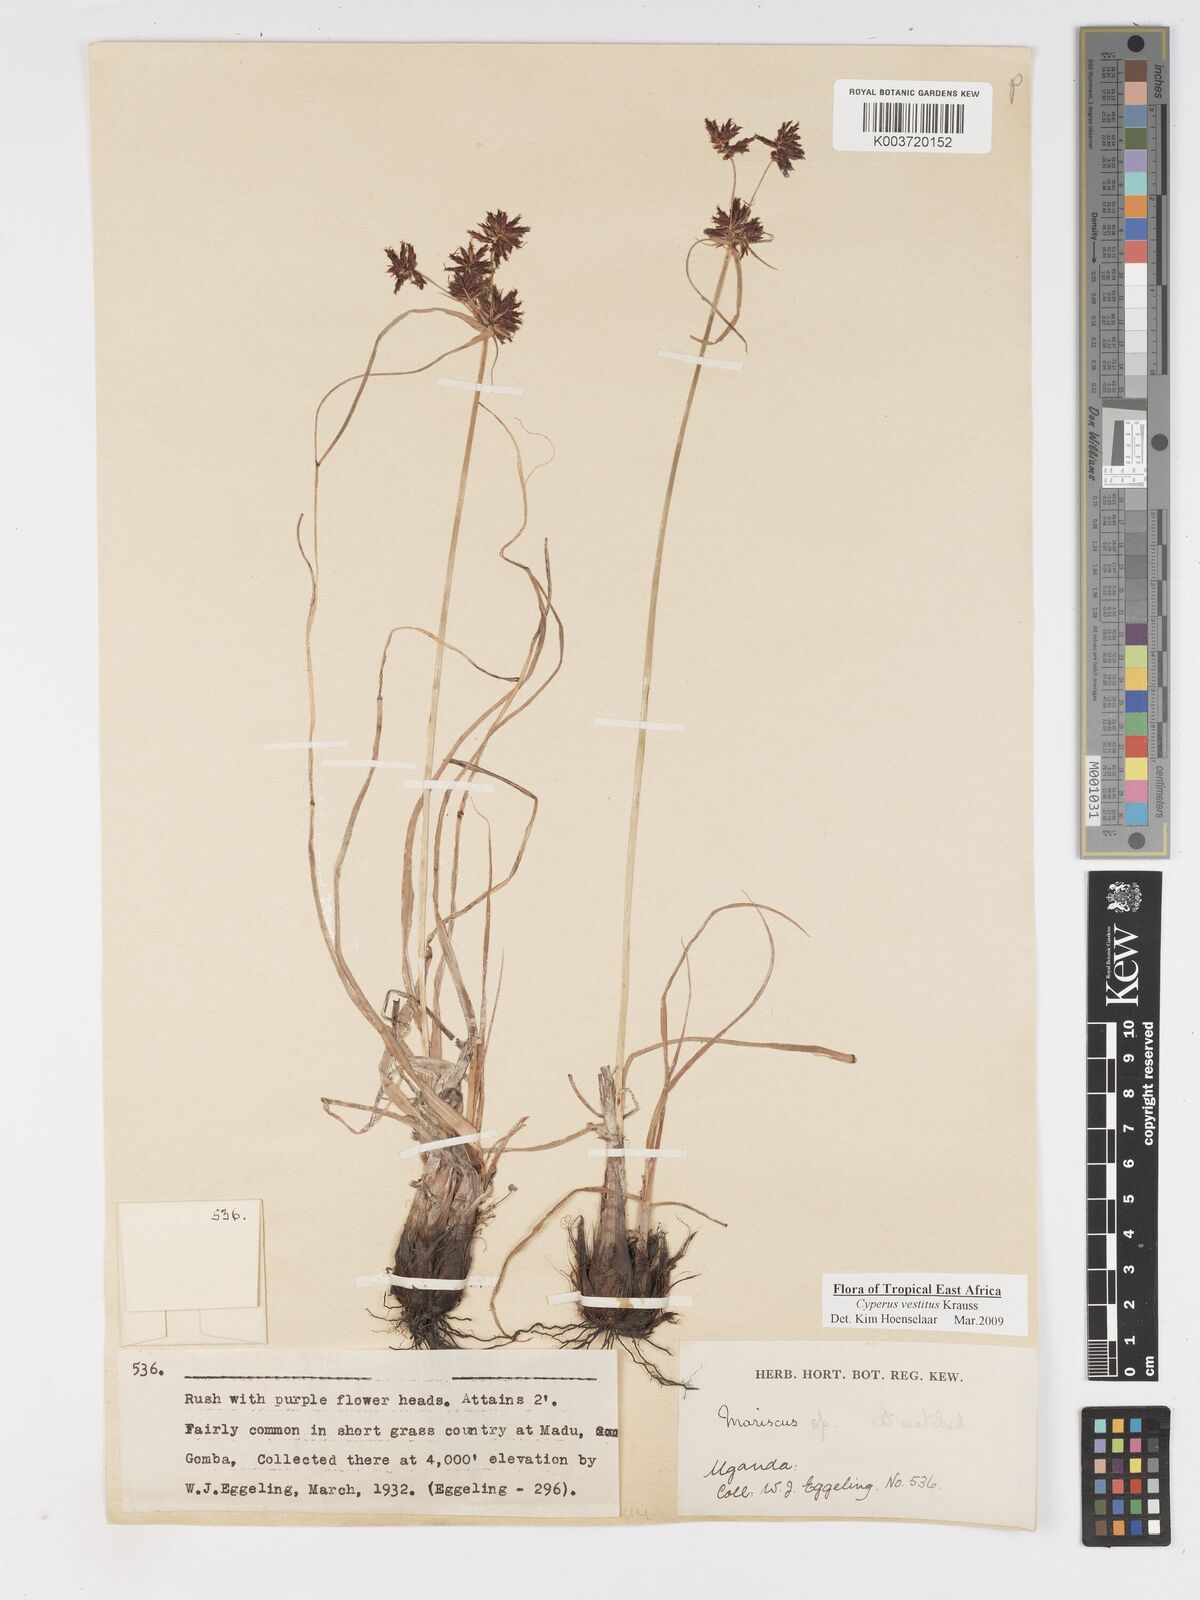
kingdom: Plantae
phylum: Tracheophyta
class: Liliopsida
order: Poales
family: Cyperaceae
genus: Cyperus
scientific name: Cyperus vestitus
